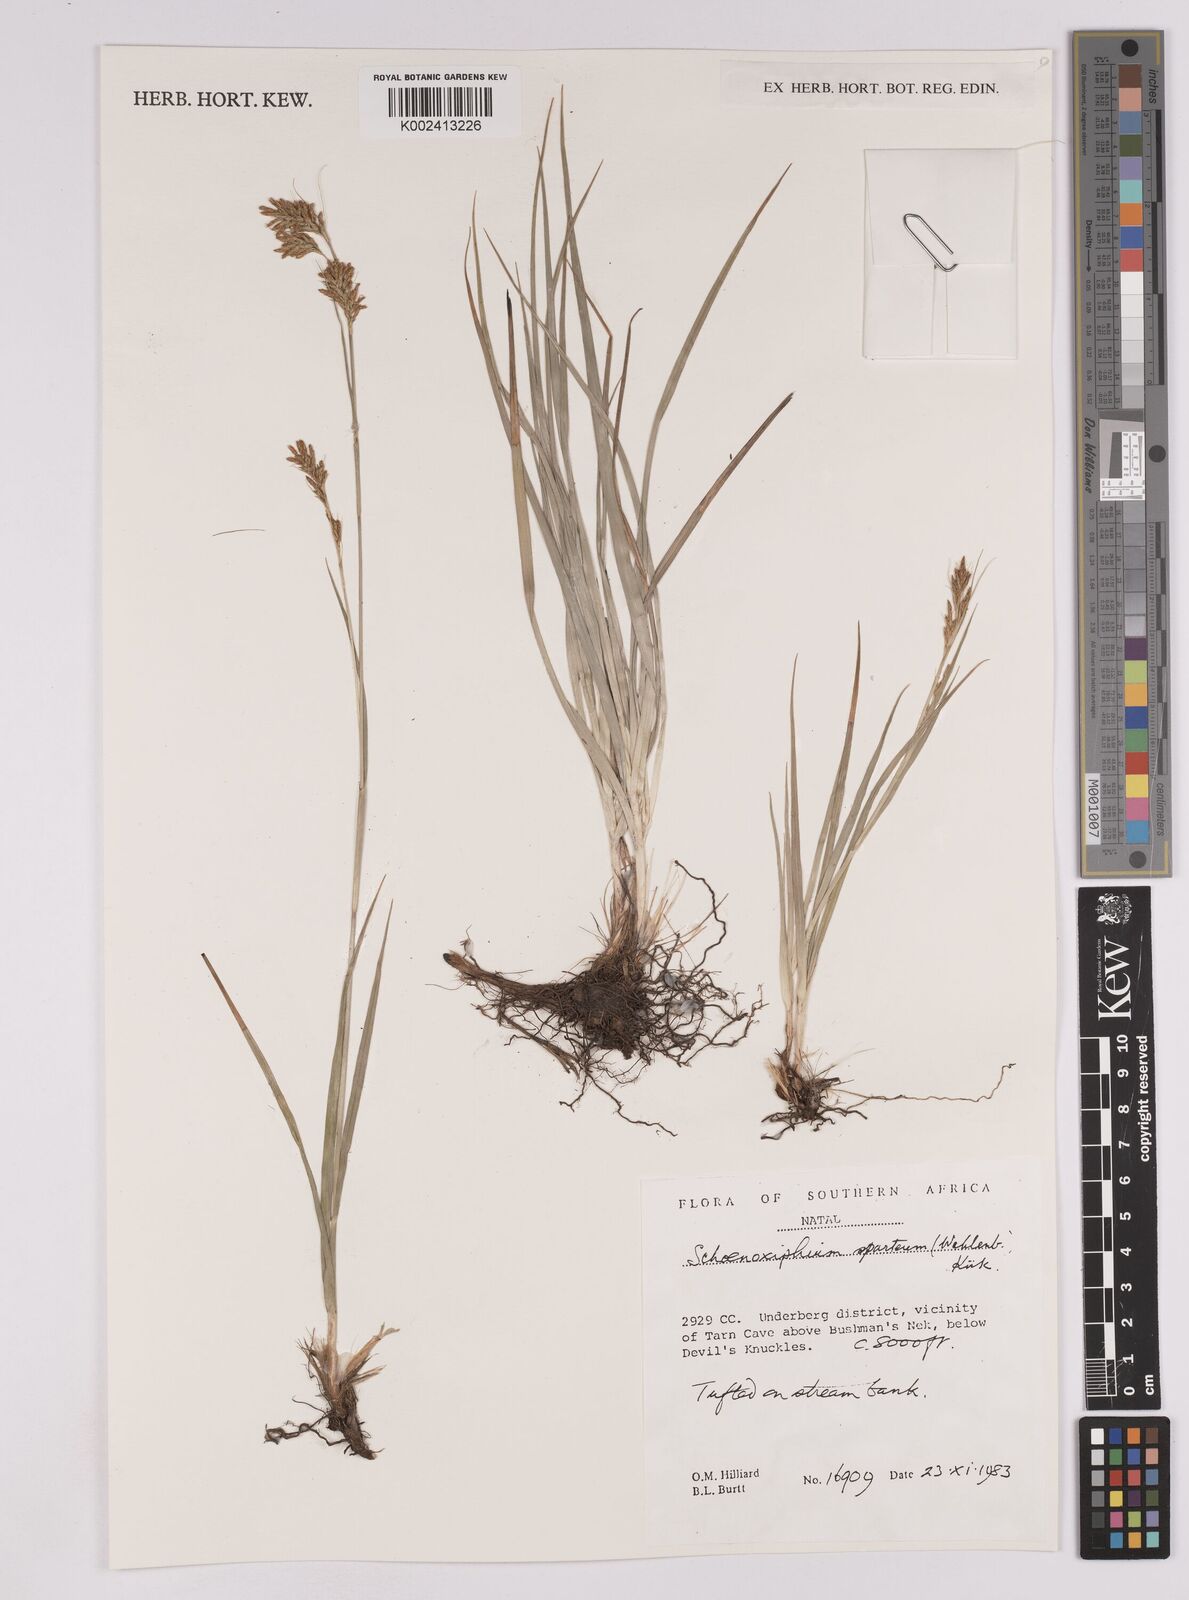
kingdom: Plantae
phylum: Tracheophyta
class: Liliopsida
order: Poales
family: Cyperaceae
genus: Carex
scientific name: Carex schimperiana
